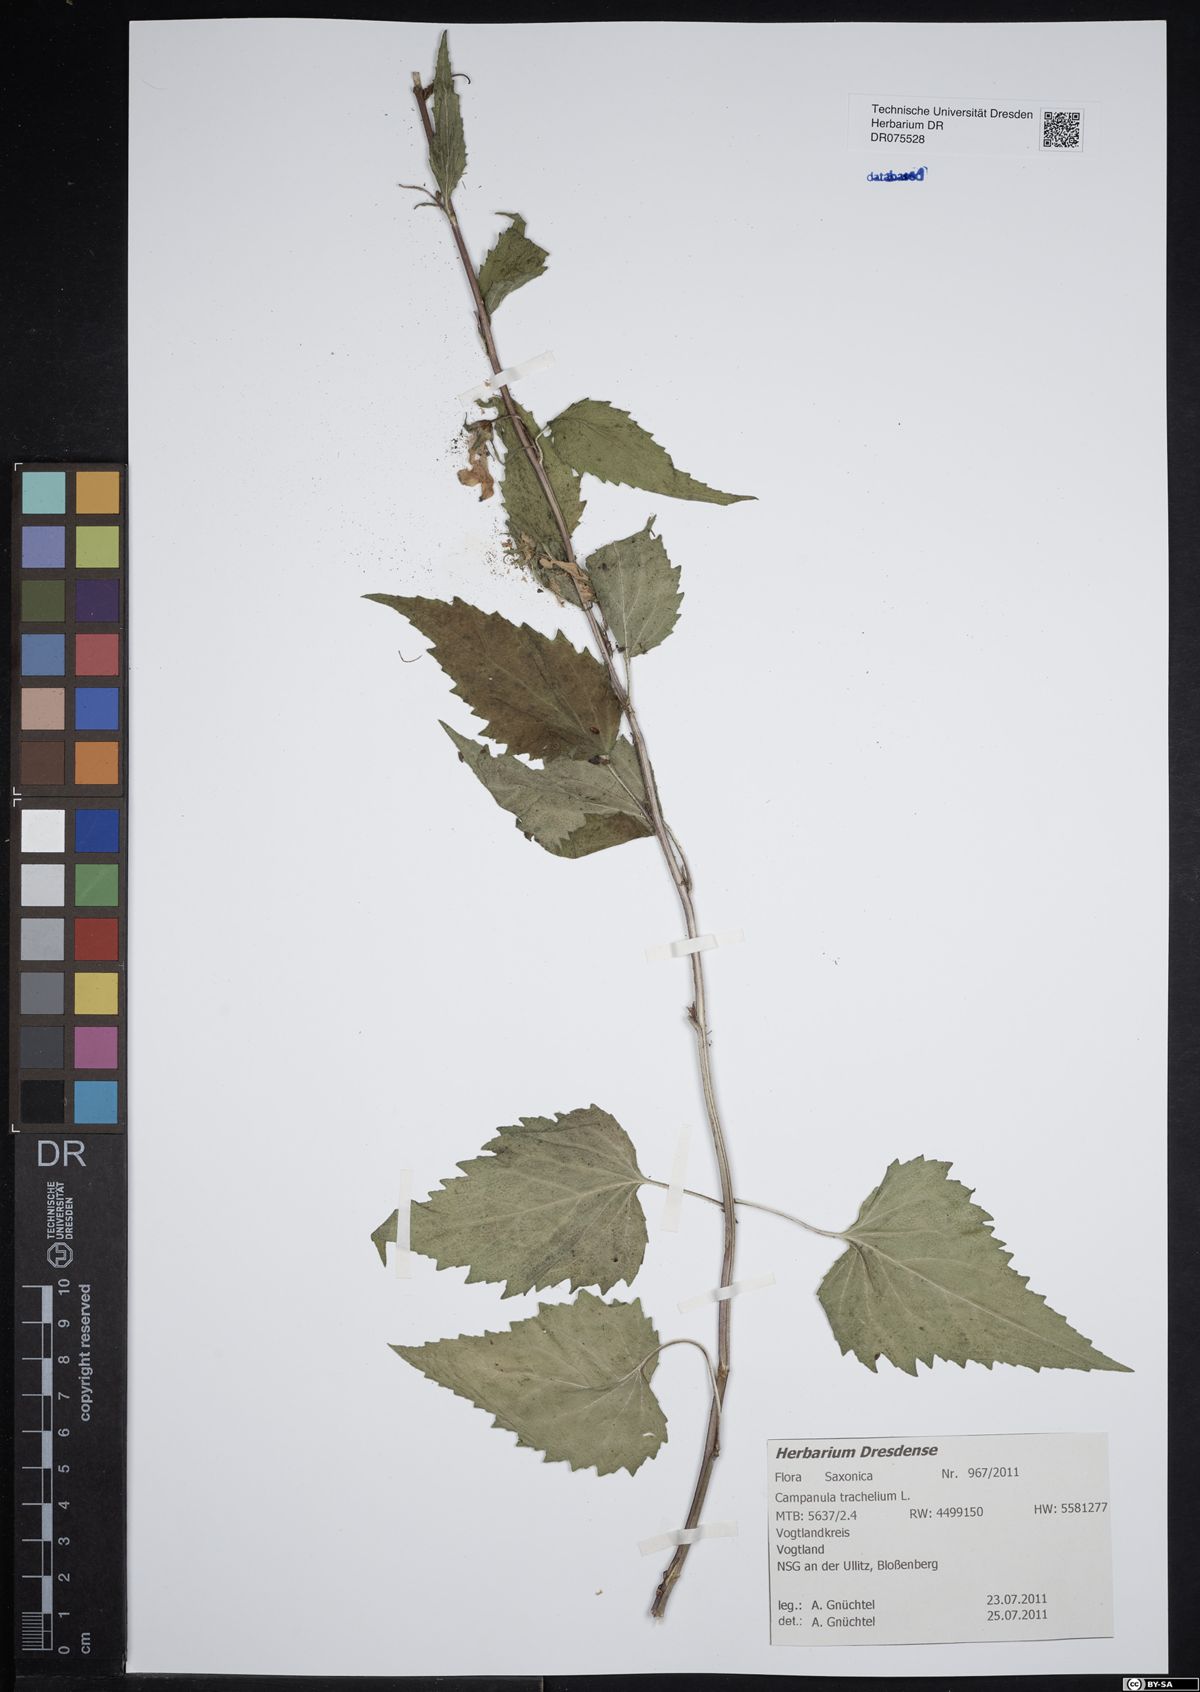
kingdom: Plantae
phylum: Tracheophyta
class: Magnoliopsida
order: Asterales
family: Campanulaceae
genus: Campanula
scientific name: Campanula trachelium
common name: Nettle-leaved bellflower
